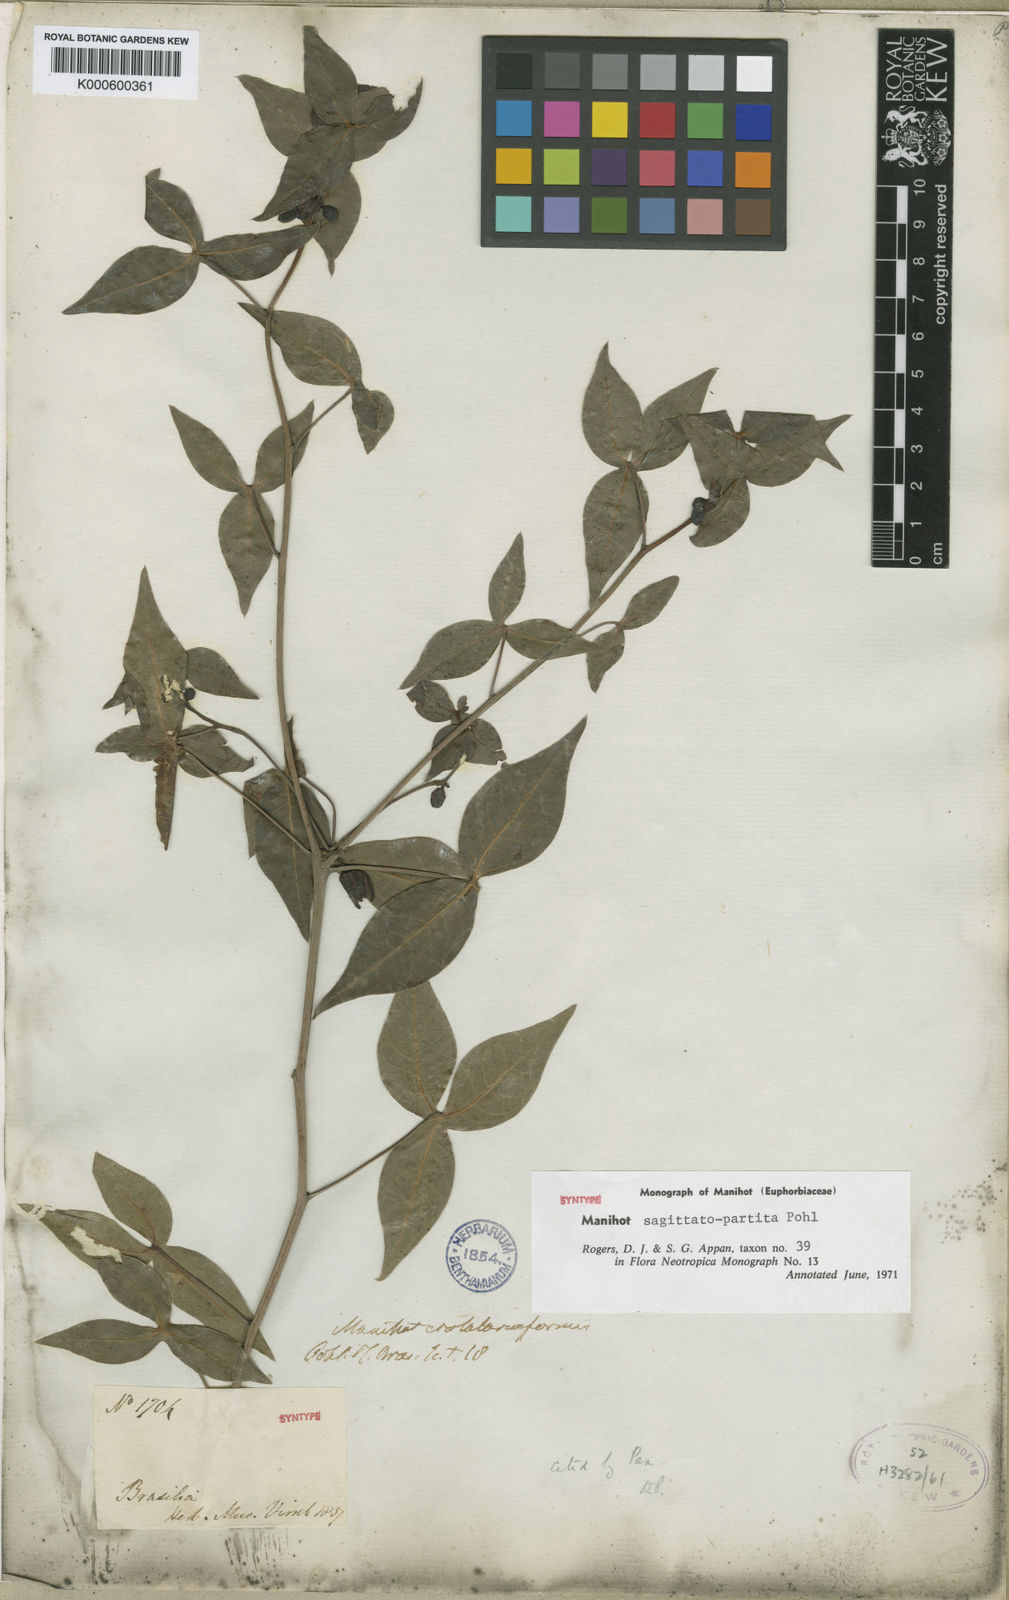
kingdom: Plantae
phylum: Tracheophyta
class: Magnoliopsida
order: Malpighiales
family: Euphorbiaceae
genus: Manihot
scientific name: Manihot sagittatopartita
